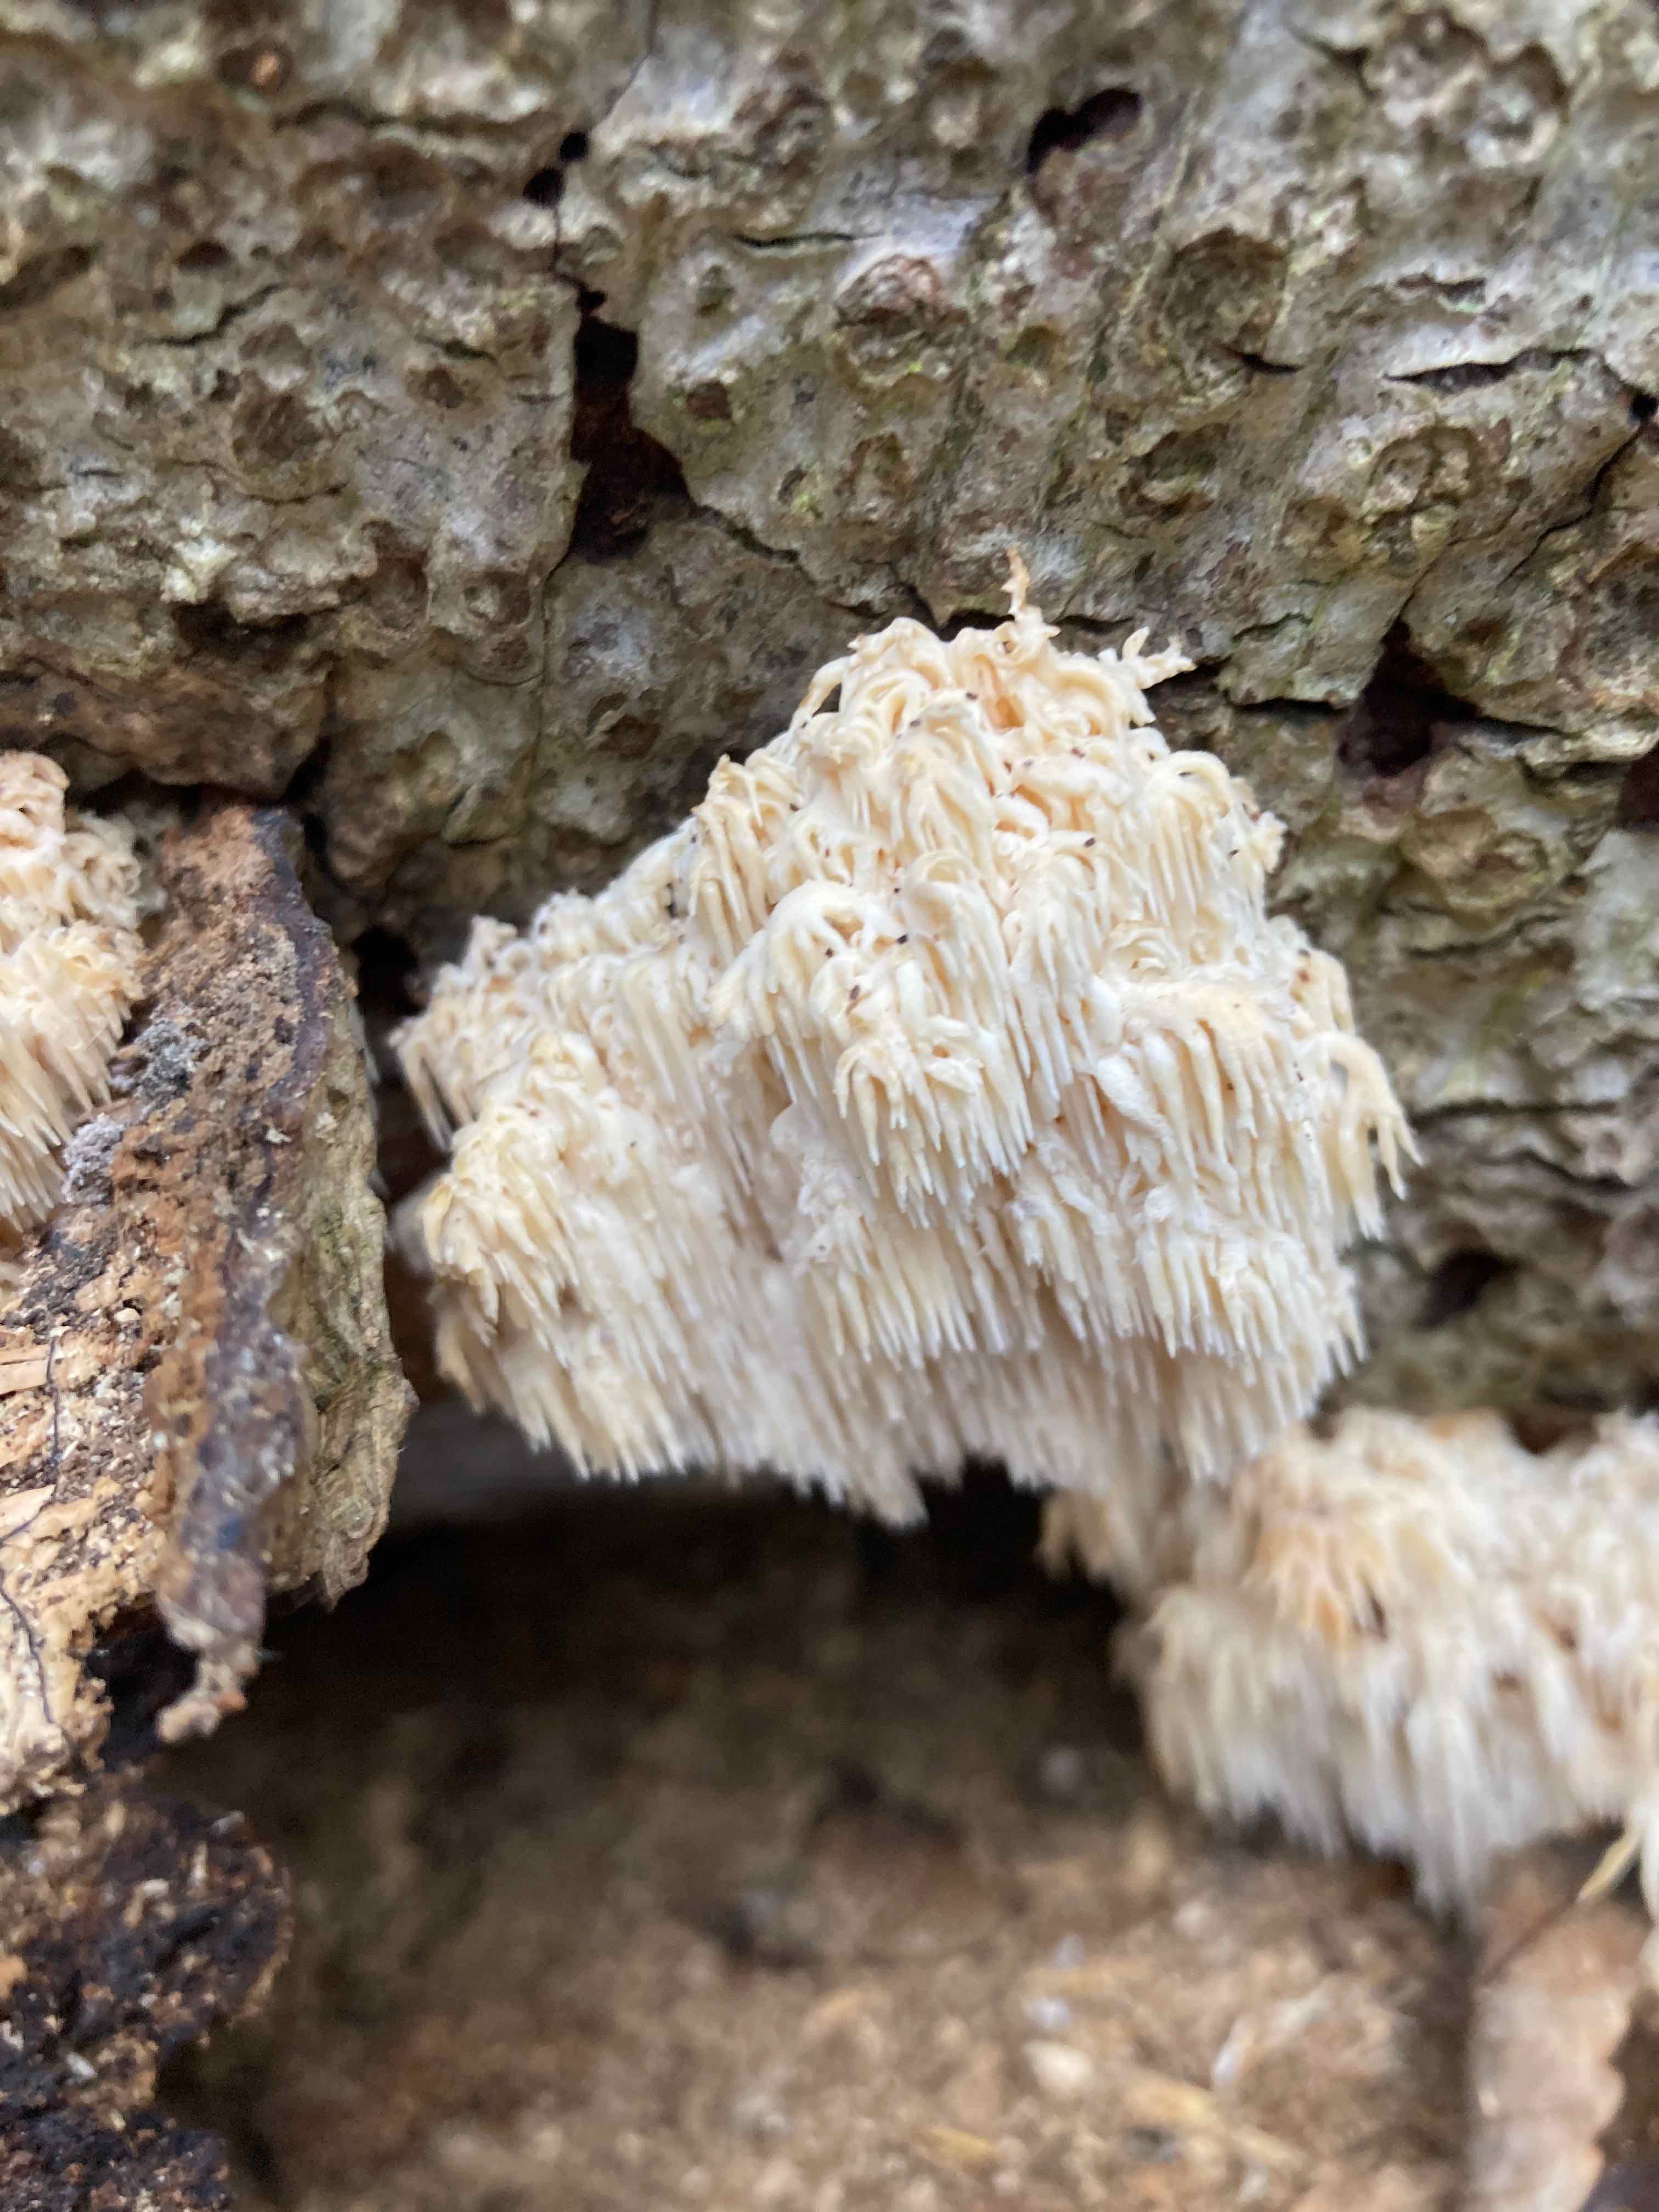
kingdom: Fungi
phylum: Basidiomycota
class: Agaricomycetes
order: Russulales
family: Hericiaceae
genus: Hericium
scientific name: Hericium coralloides
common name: koralpigsvamp
